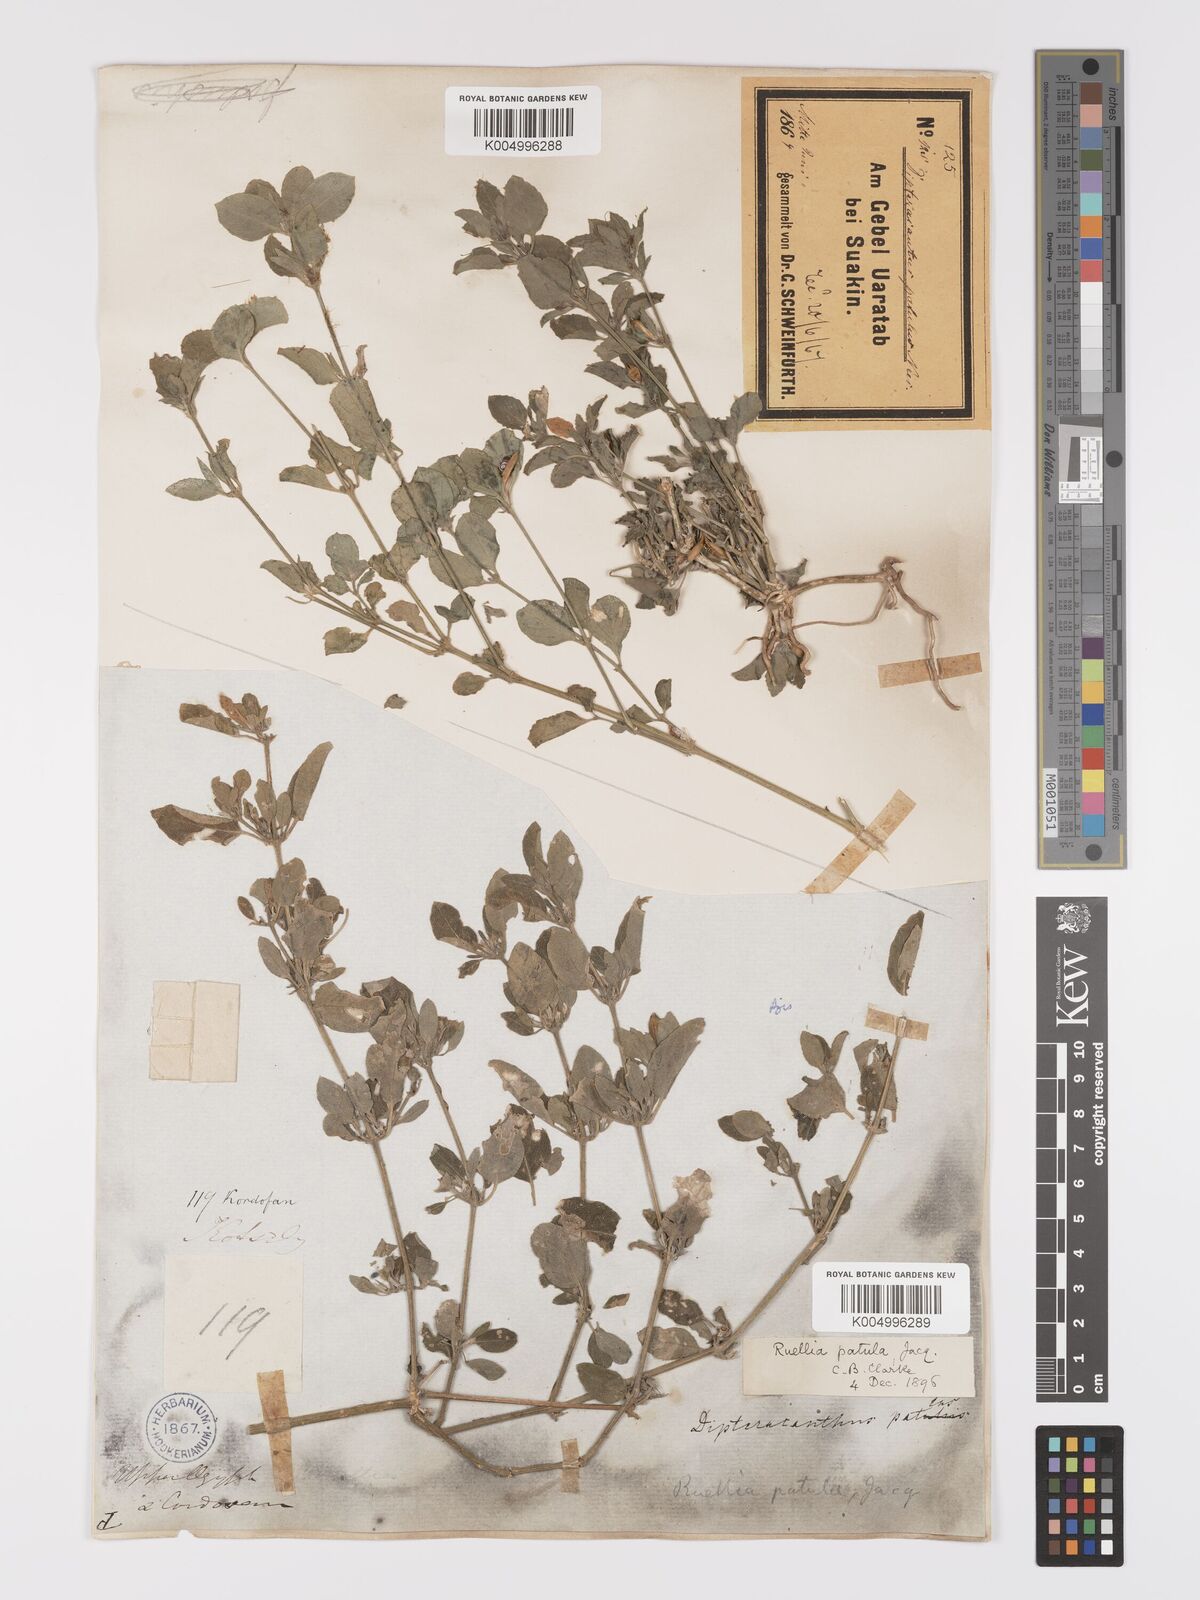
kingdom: Plantae
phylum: Tracheophyta
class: Magnoliopsida
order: Lamiales
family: Acanthaceae
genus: Ruellia
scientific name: Ruellia patula
